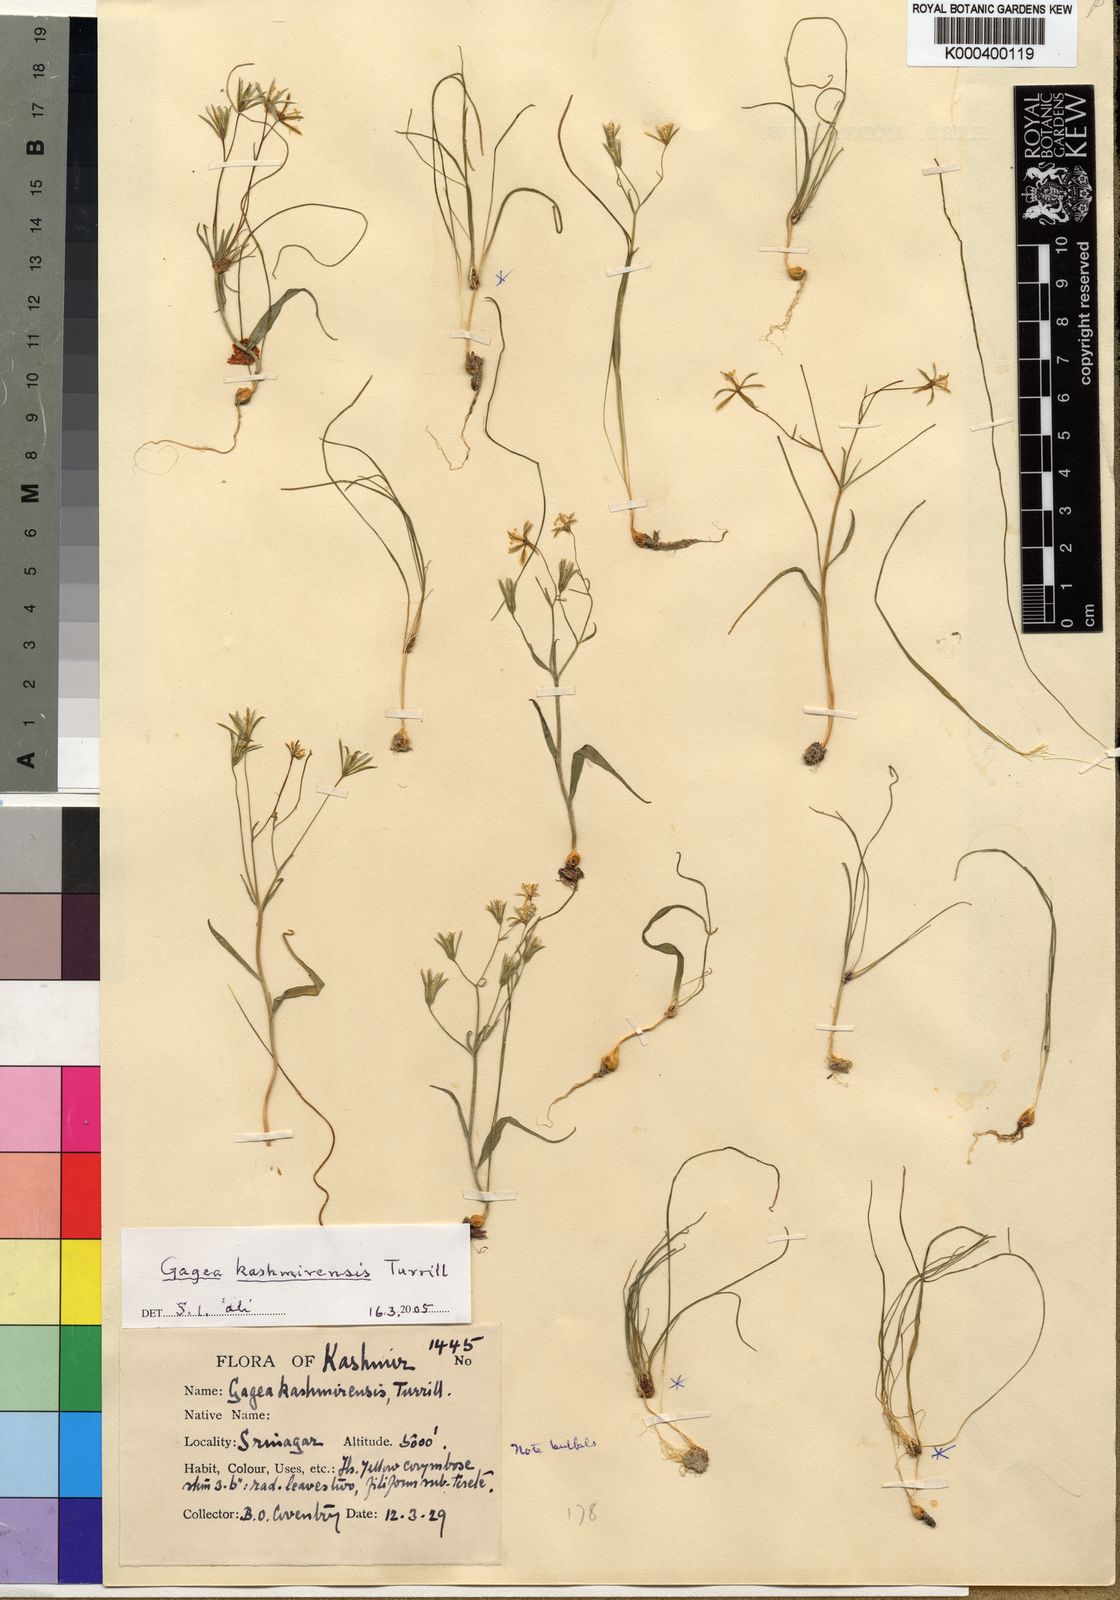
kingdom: Plantae
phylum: Tracheophyta
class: Liliopsida
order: Liliales
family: Liliaceae
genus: Gagea
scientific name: Gagea tenera
